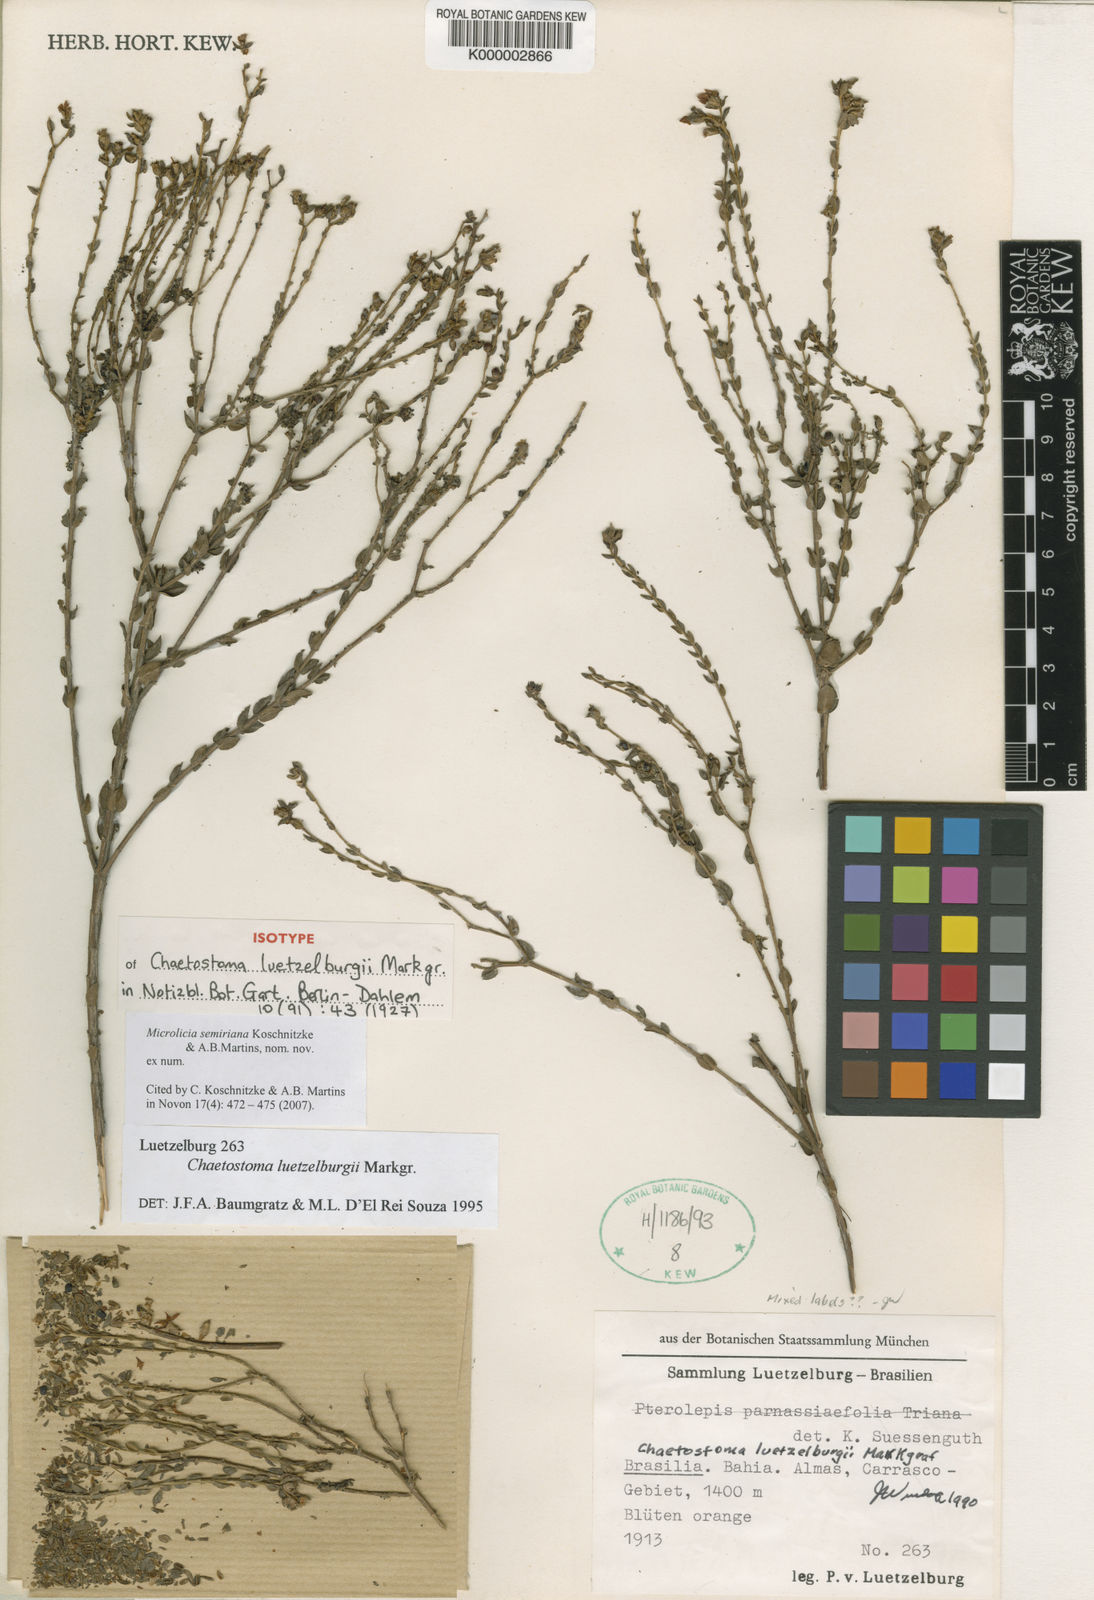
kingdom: Plantae
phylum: Tracheophyta
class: Magnoliopsida
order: Myrtales
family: Melastomataceae
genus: Microlicia
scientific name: Microlicia semiriana
